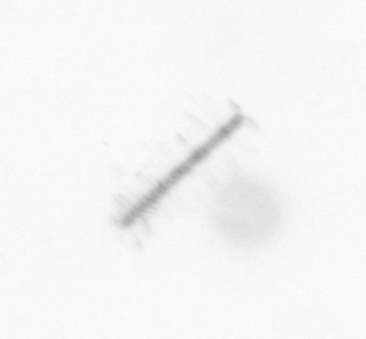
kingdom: Chromista
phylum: Ochrophyta
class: Bacillariophyceae
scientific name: Bacillariophyceae
